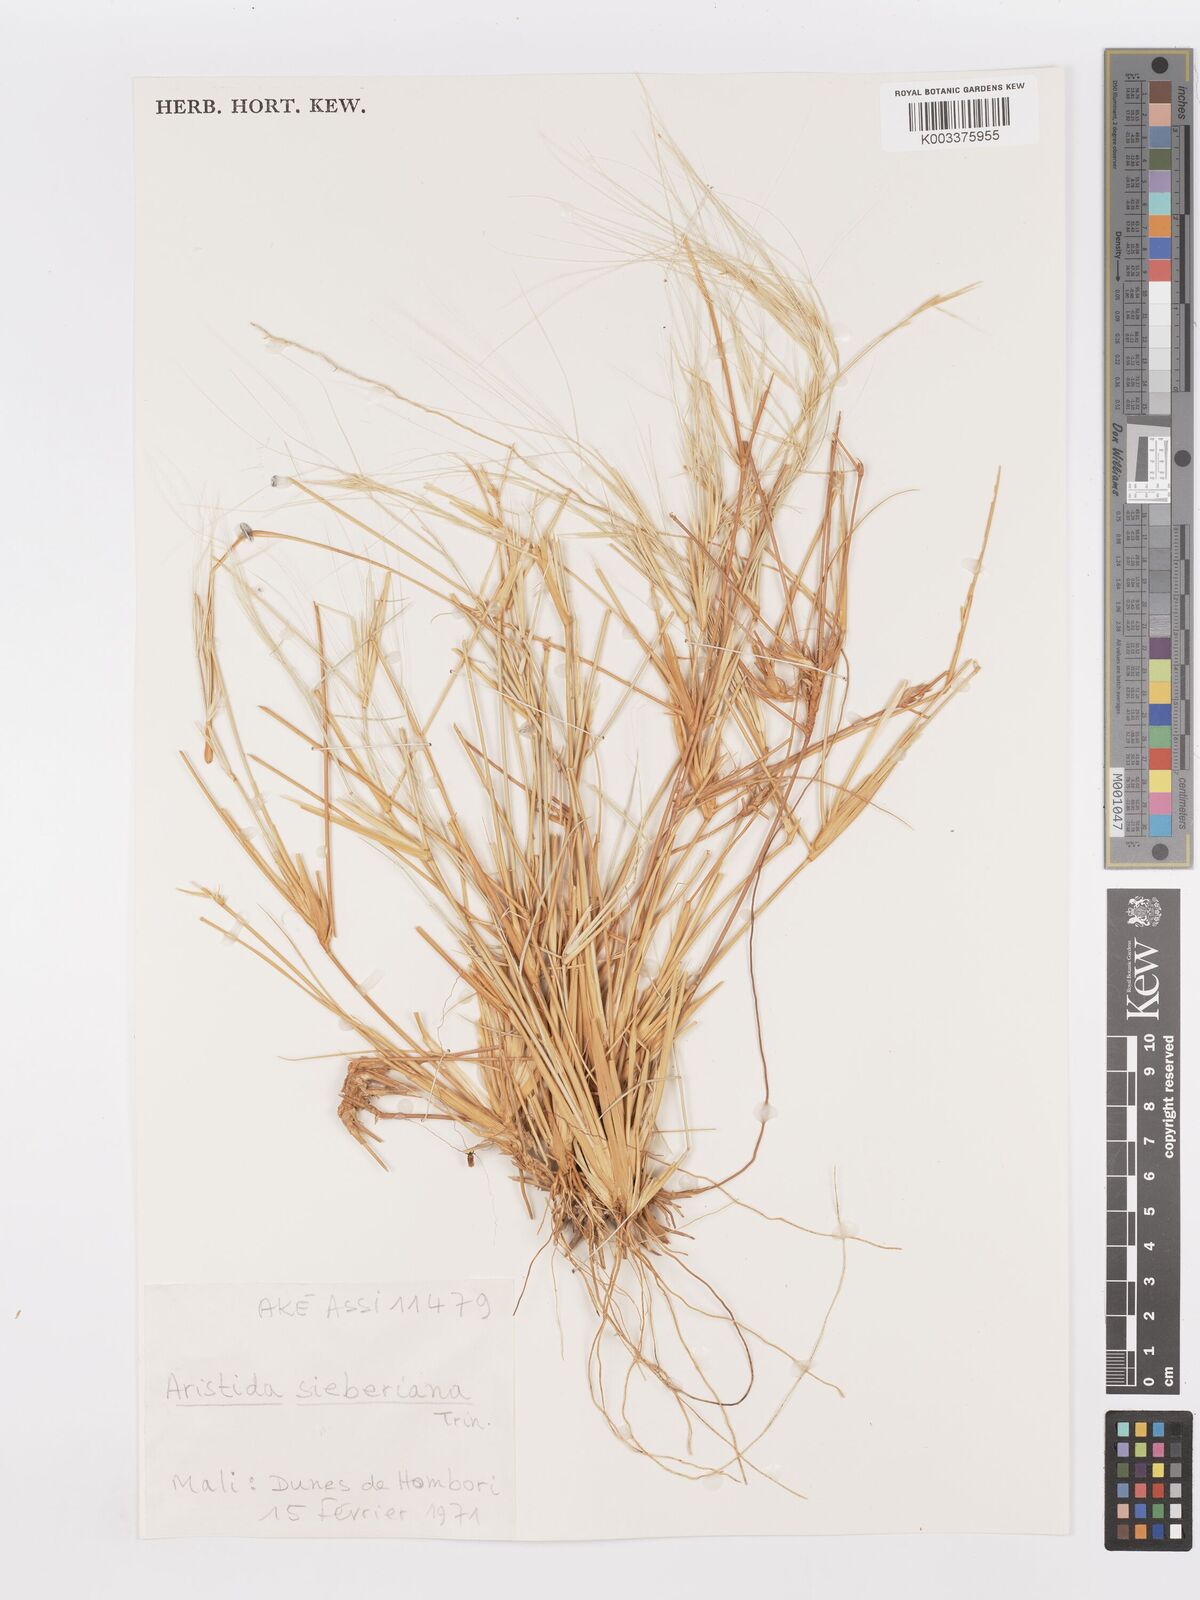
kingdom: Plantae
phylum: Tracheophyta
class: Liliopsida
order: Poales
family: Poaceae
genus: Aristida
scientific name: Aristida sieberiana
